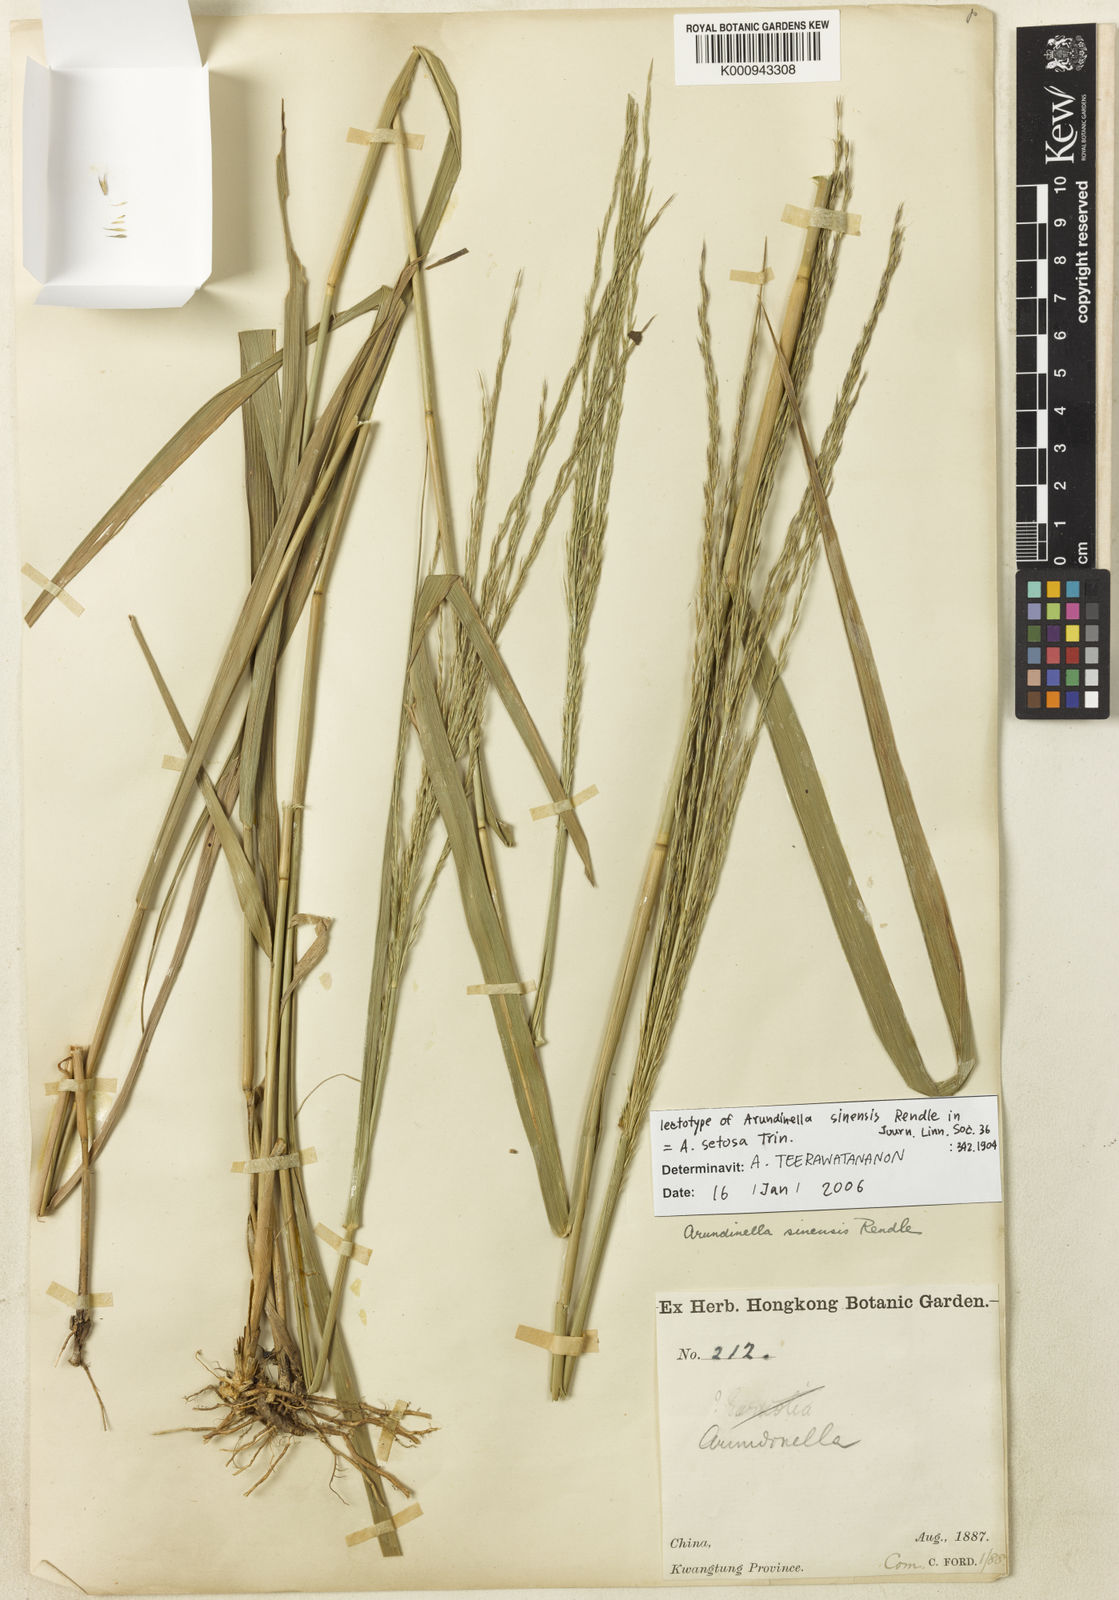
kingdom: Plantae
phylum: Tracheophyta
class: Liliopsida
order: Poales
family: Poaceae
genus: Arundinella
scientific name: Arundinella setosa
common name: Reed grass
